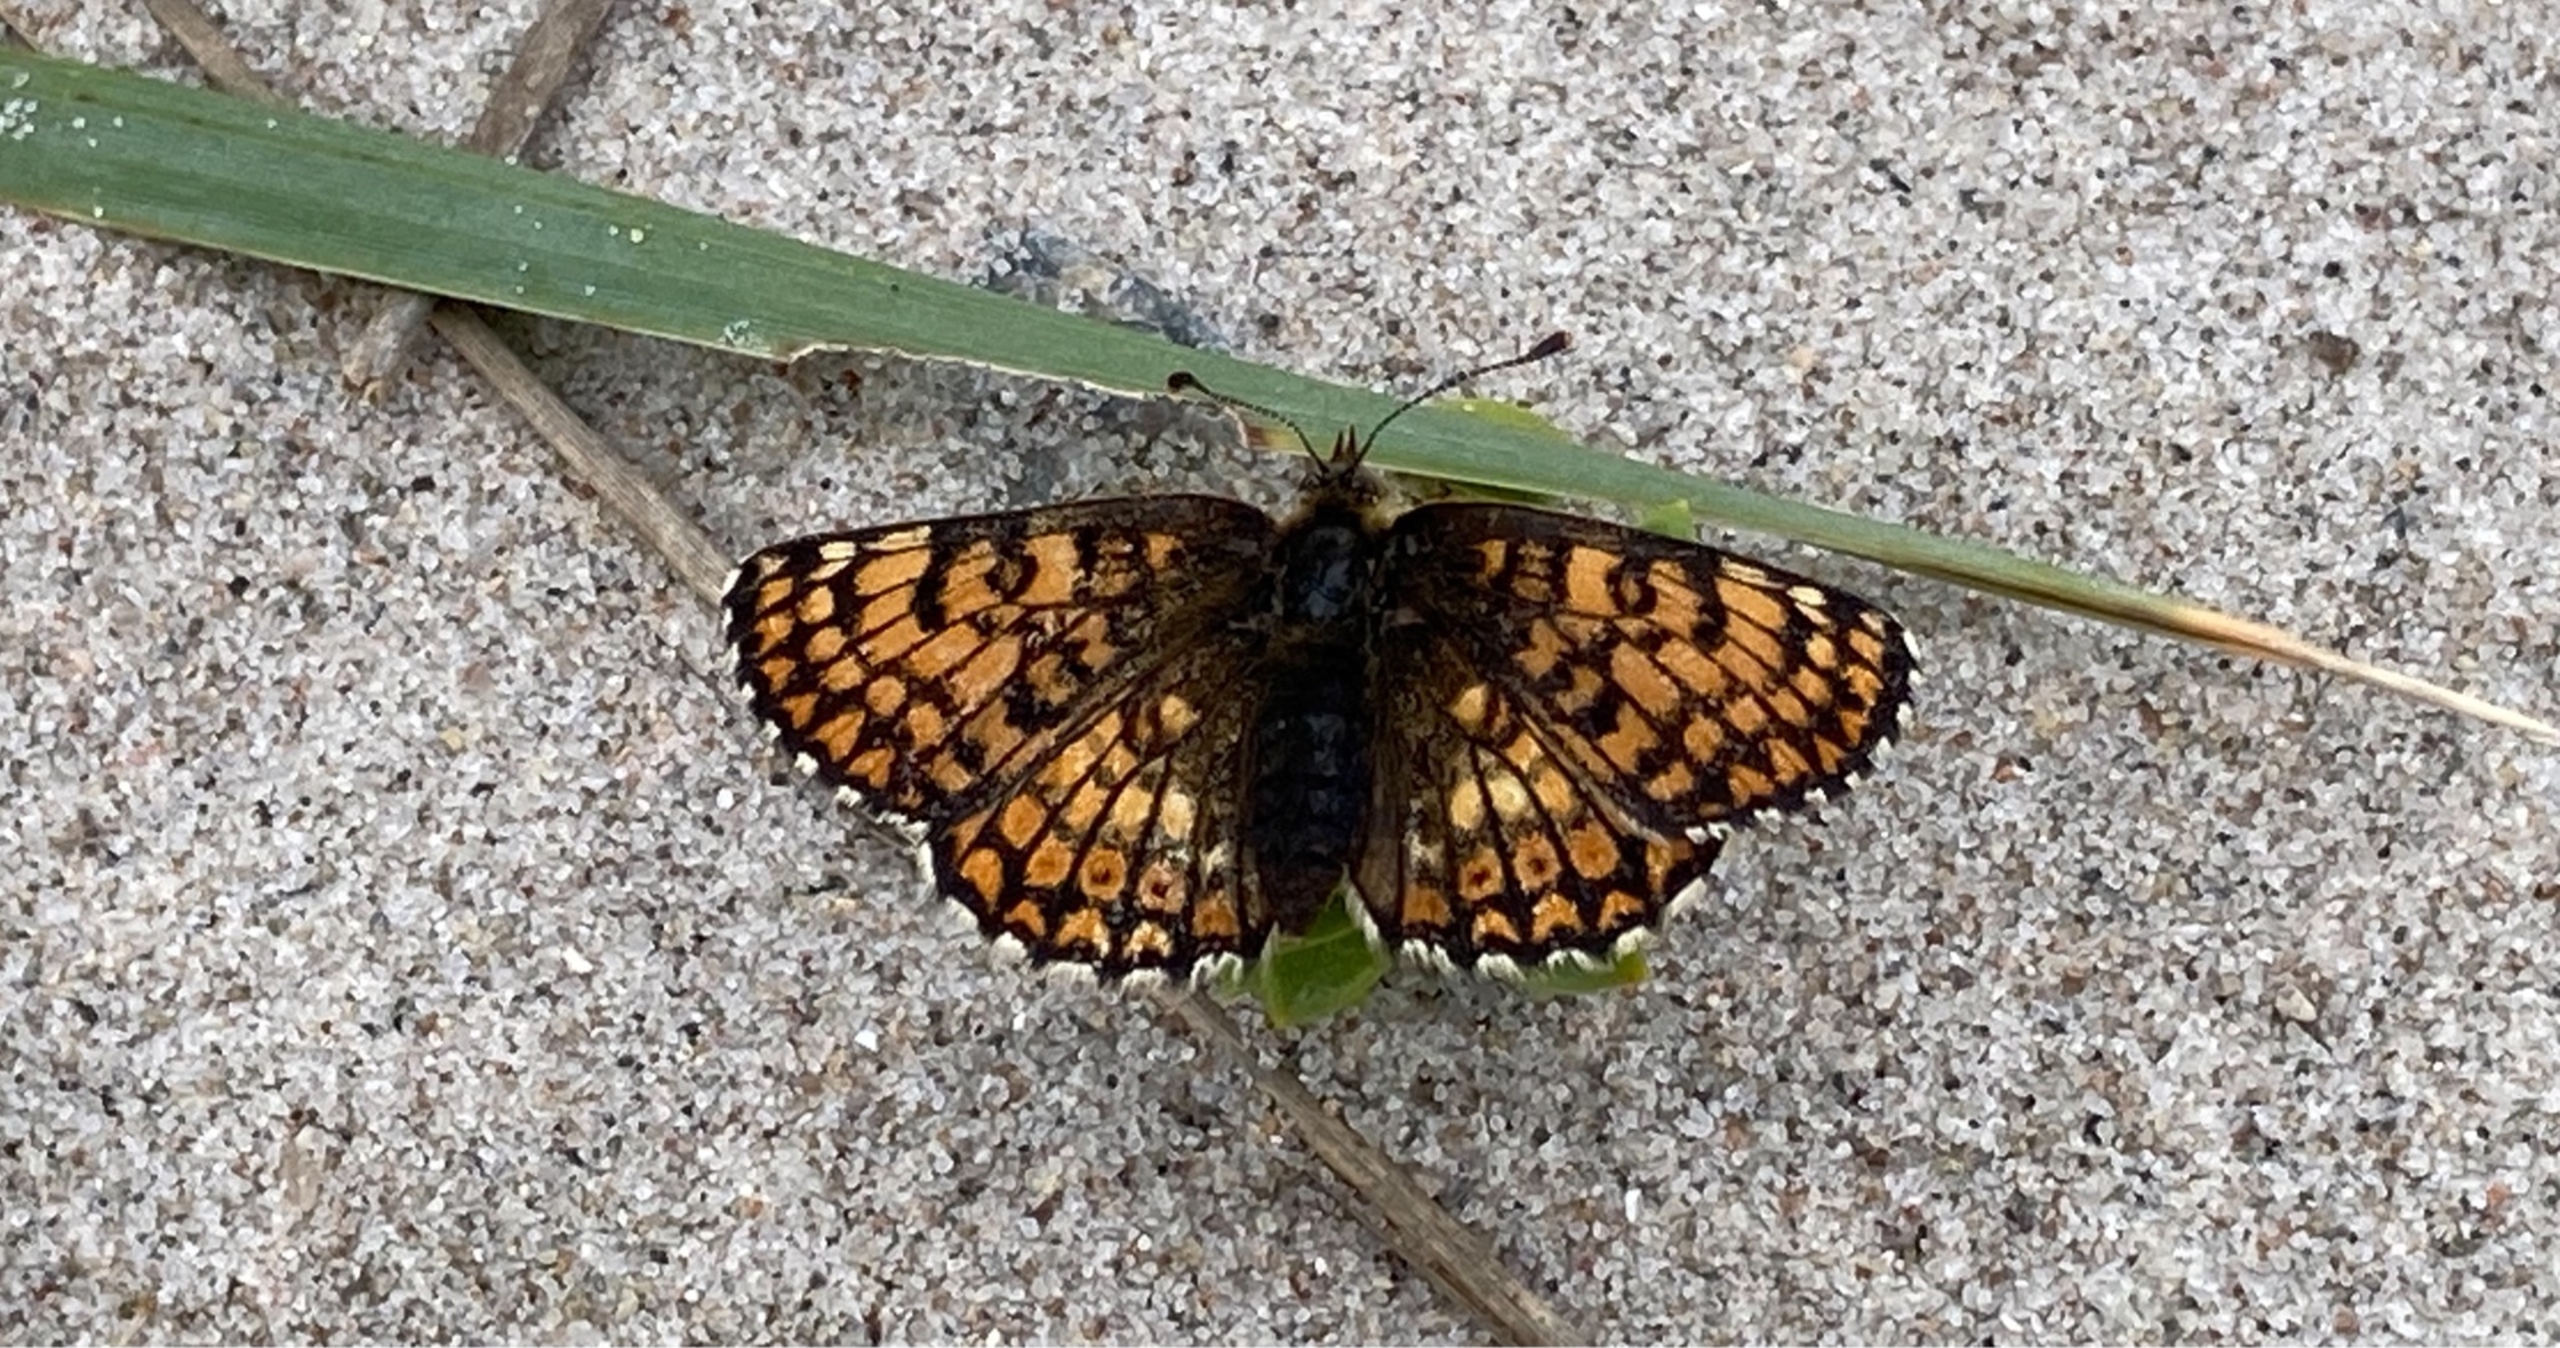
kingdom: Animalia
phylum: Arthropoda
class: Insecta
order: Lepidoptera
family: Nymphalidae
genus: Melitaea
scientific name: Melitaea cinxia
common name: Okkergul pletvinge
